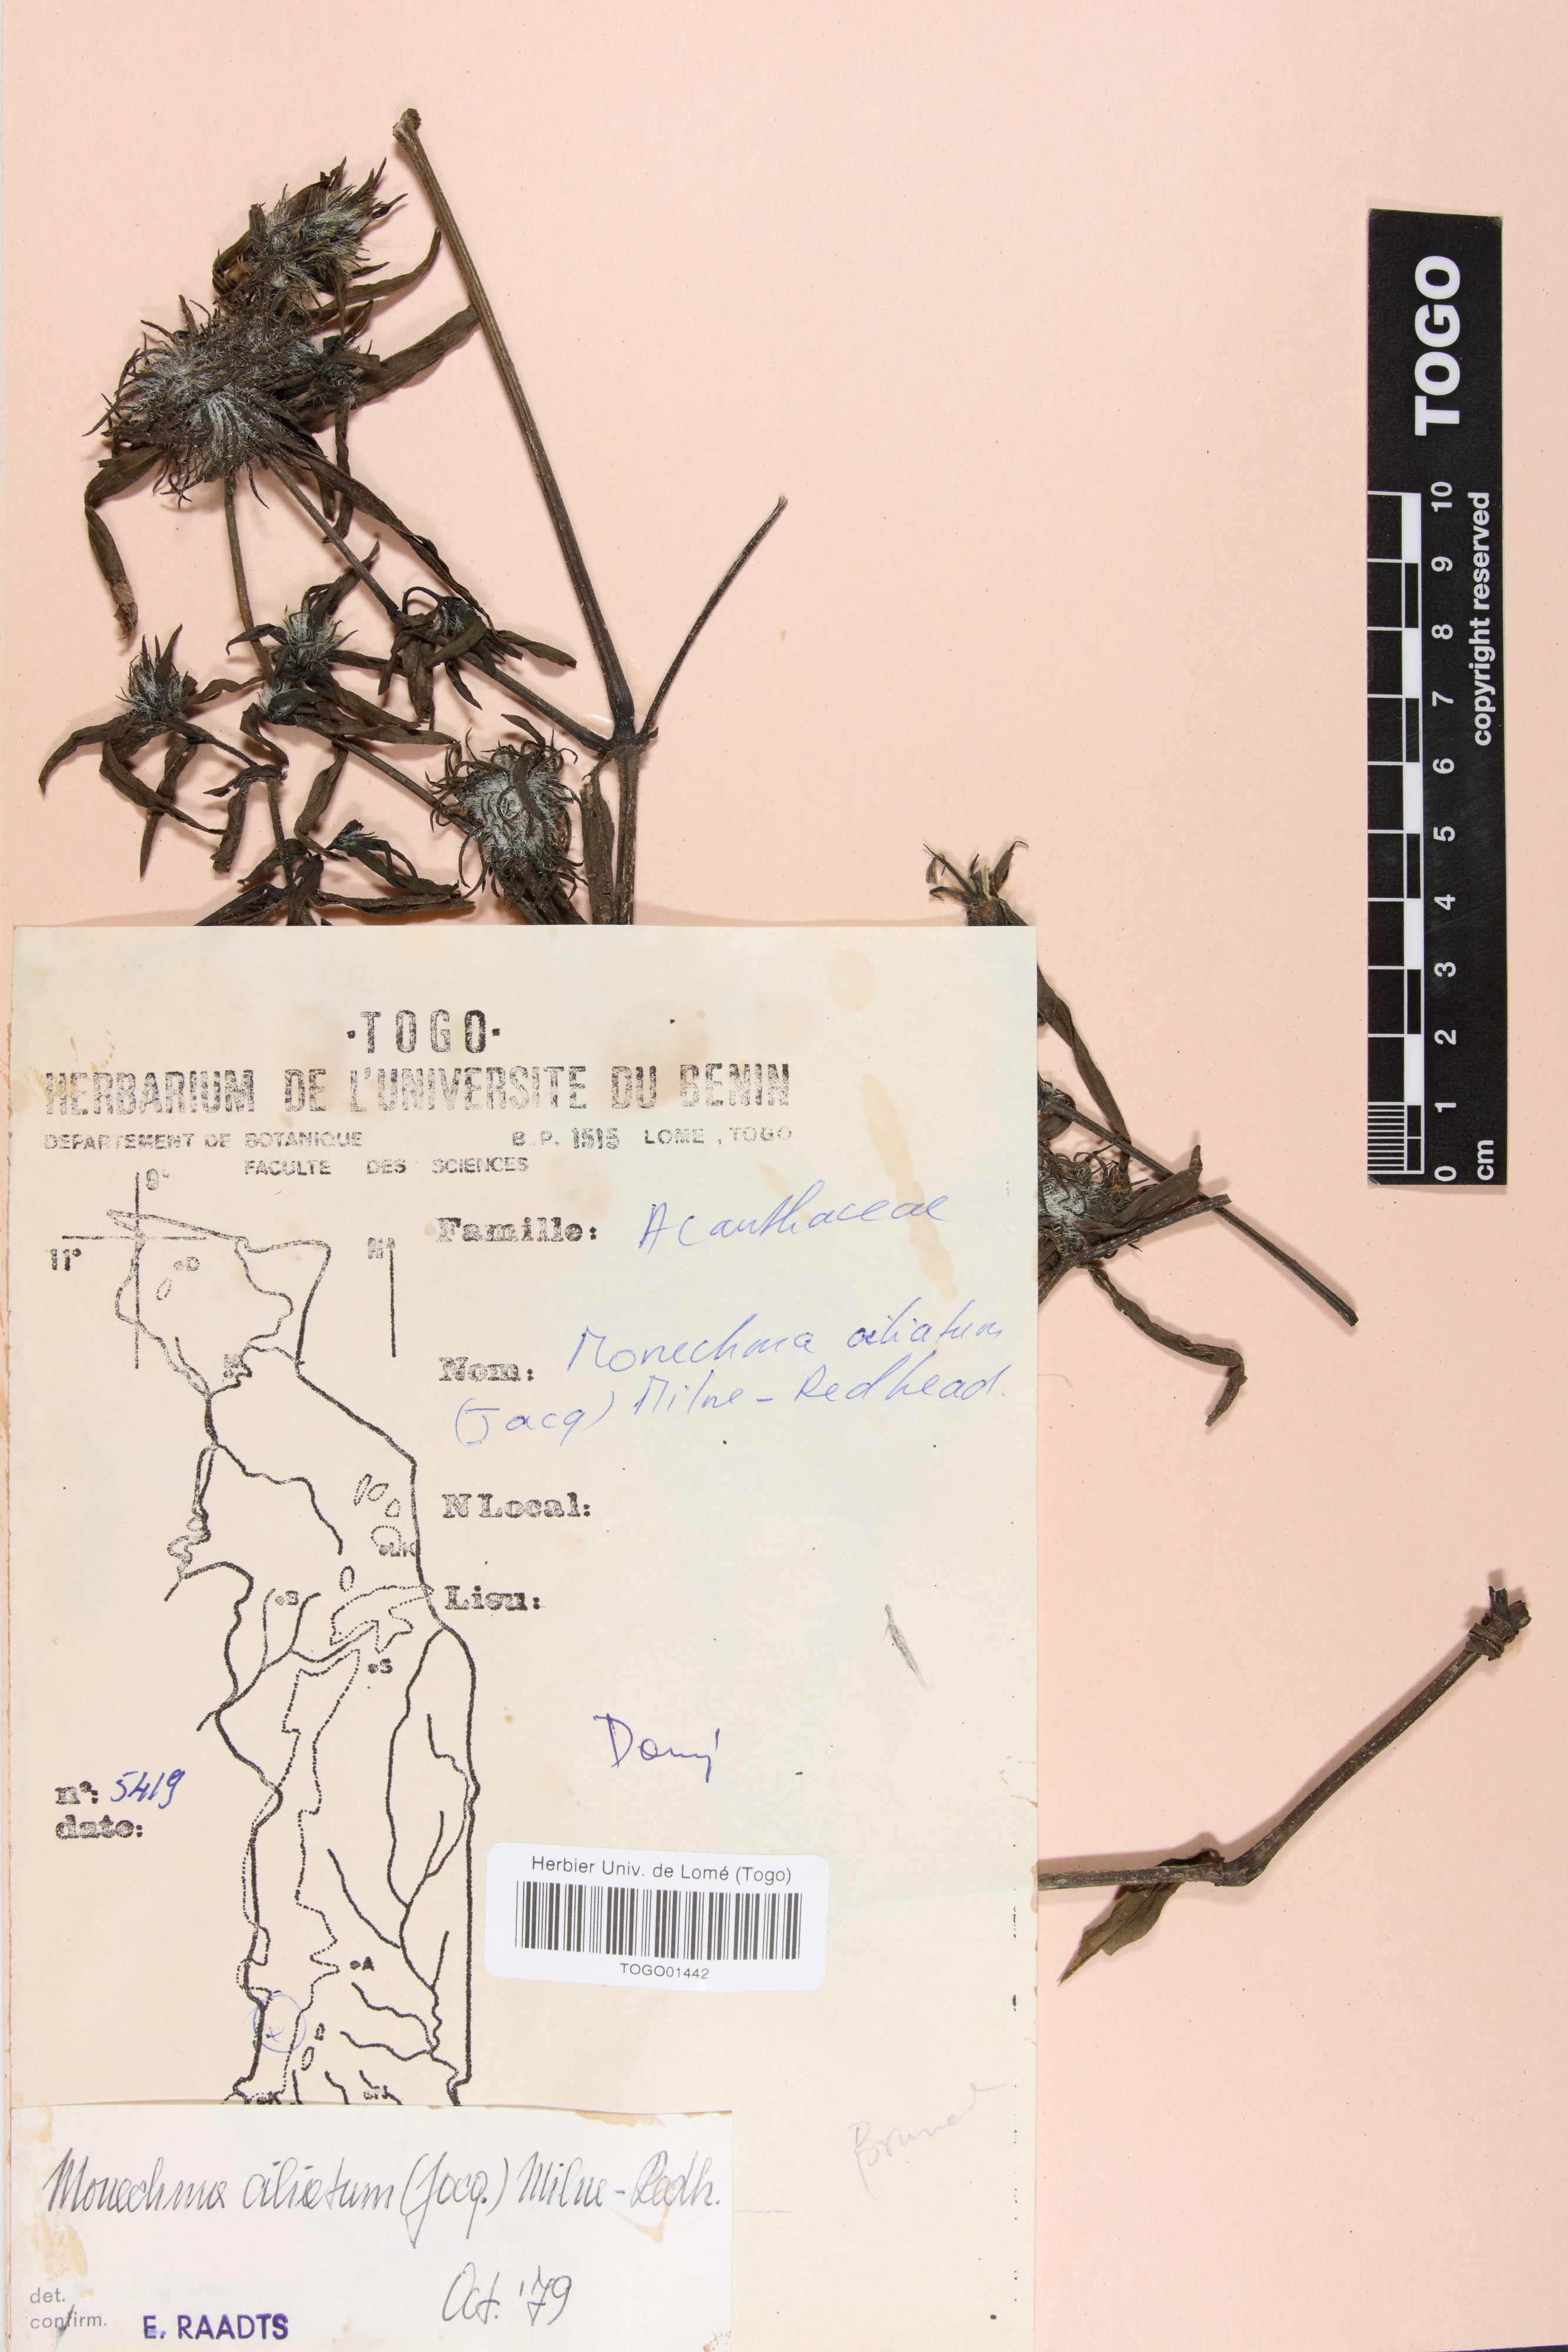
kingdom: Plantae
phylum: Tracheophyta
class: Magnoliopsida
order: Lamiales
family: Acanthaceae
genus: Pogonospermum
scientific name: Pogonospermum ciliare
